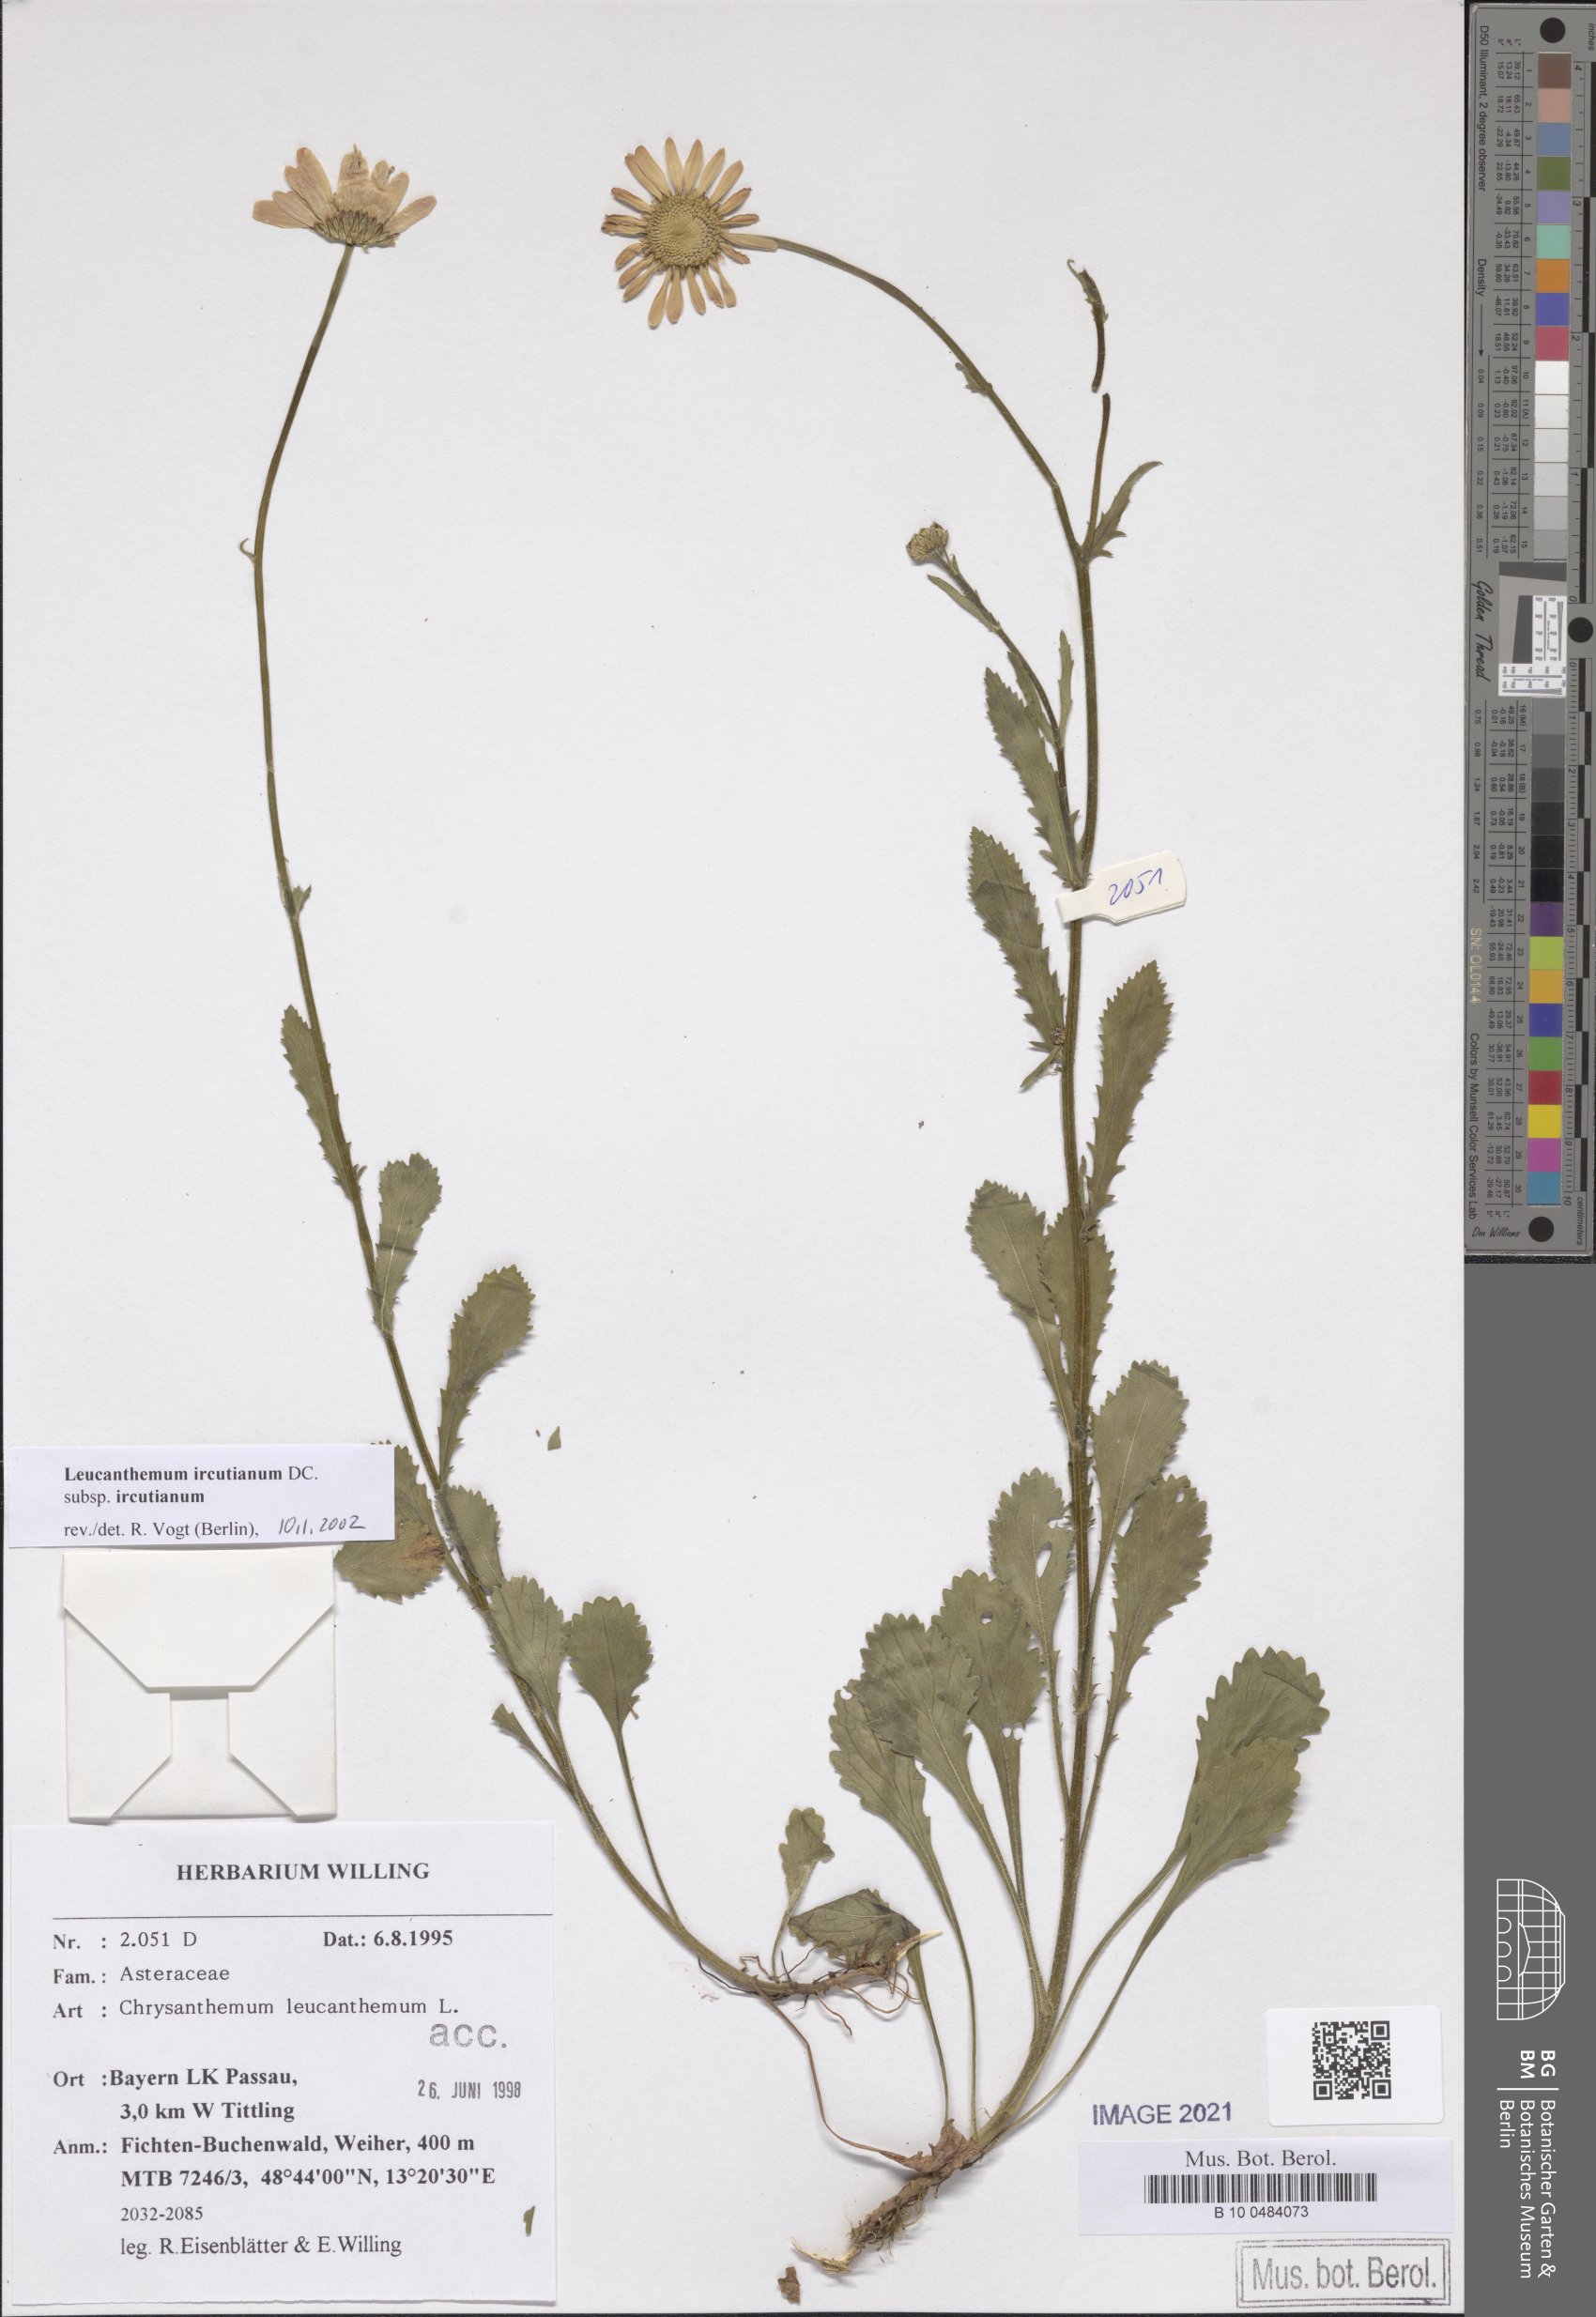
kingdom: Plantae
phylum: Tracheophyta
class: Magnoliopsida
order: Asterales
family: Asteraceae
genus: Leucanthemum
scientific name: Leucanthemum ircutianum
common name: Daisy
